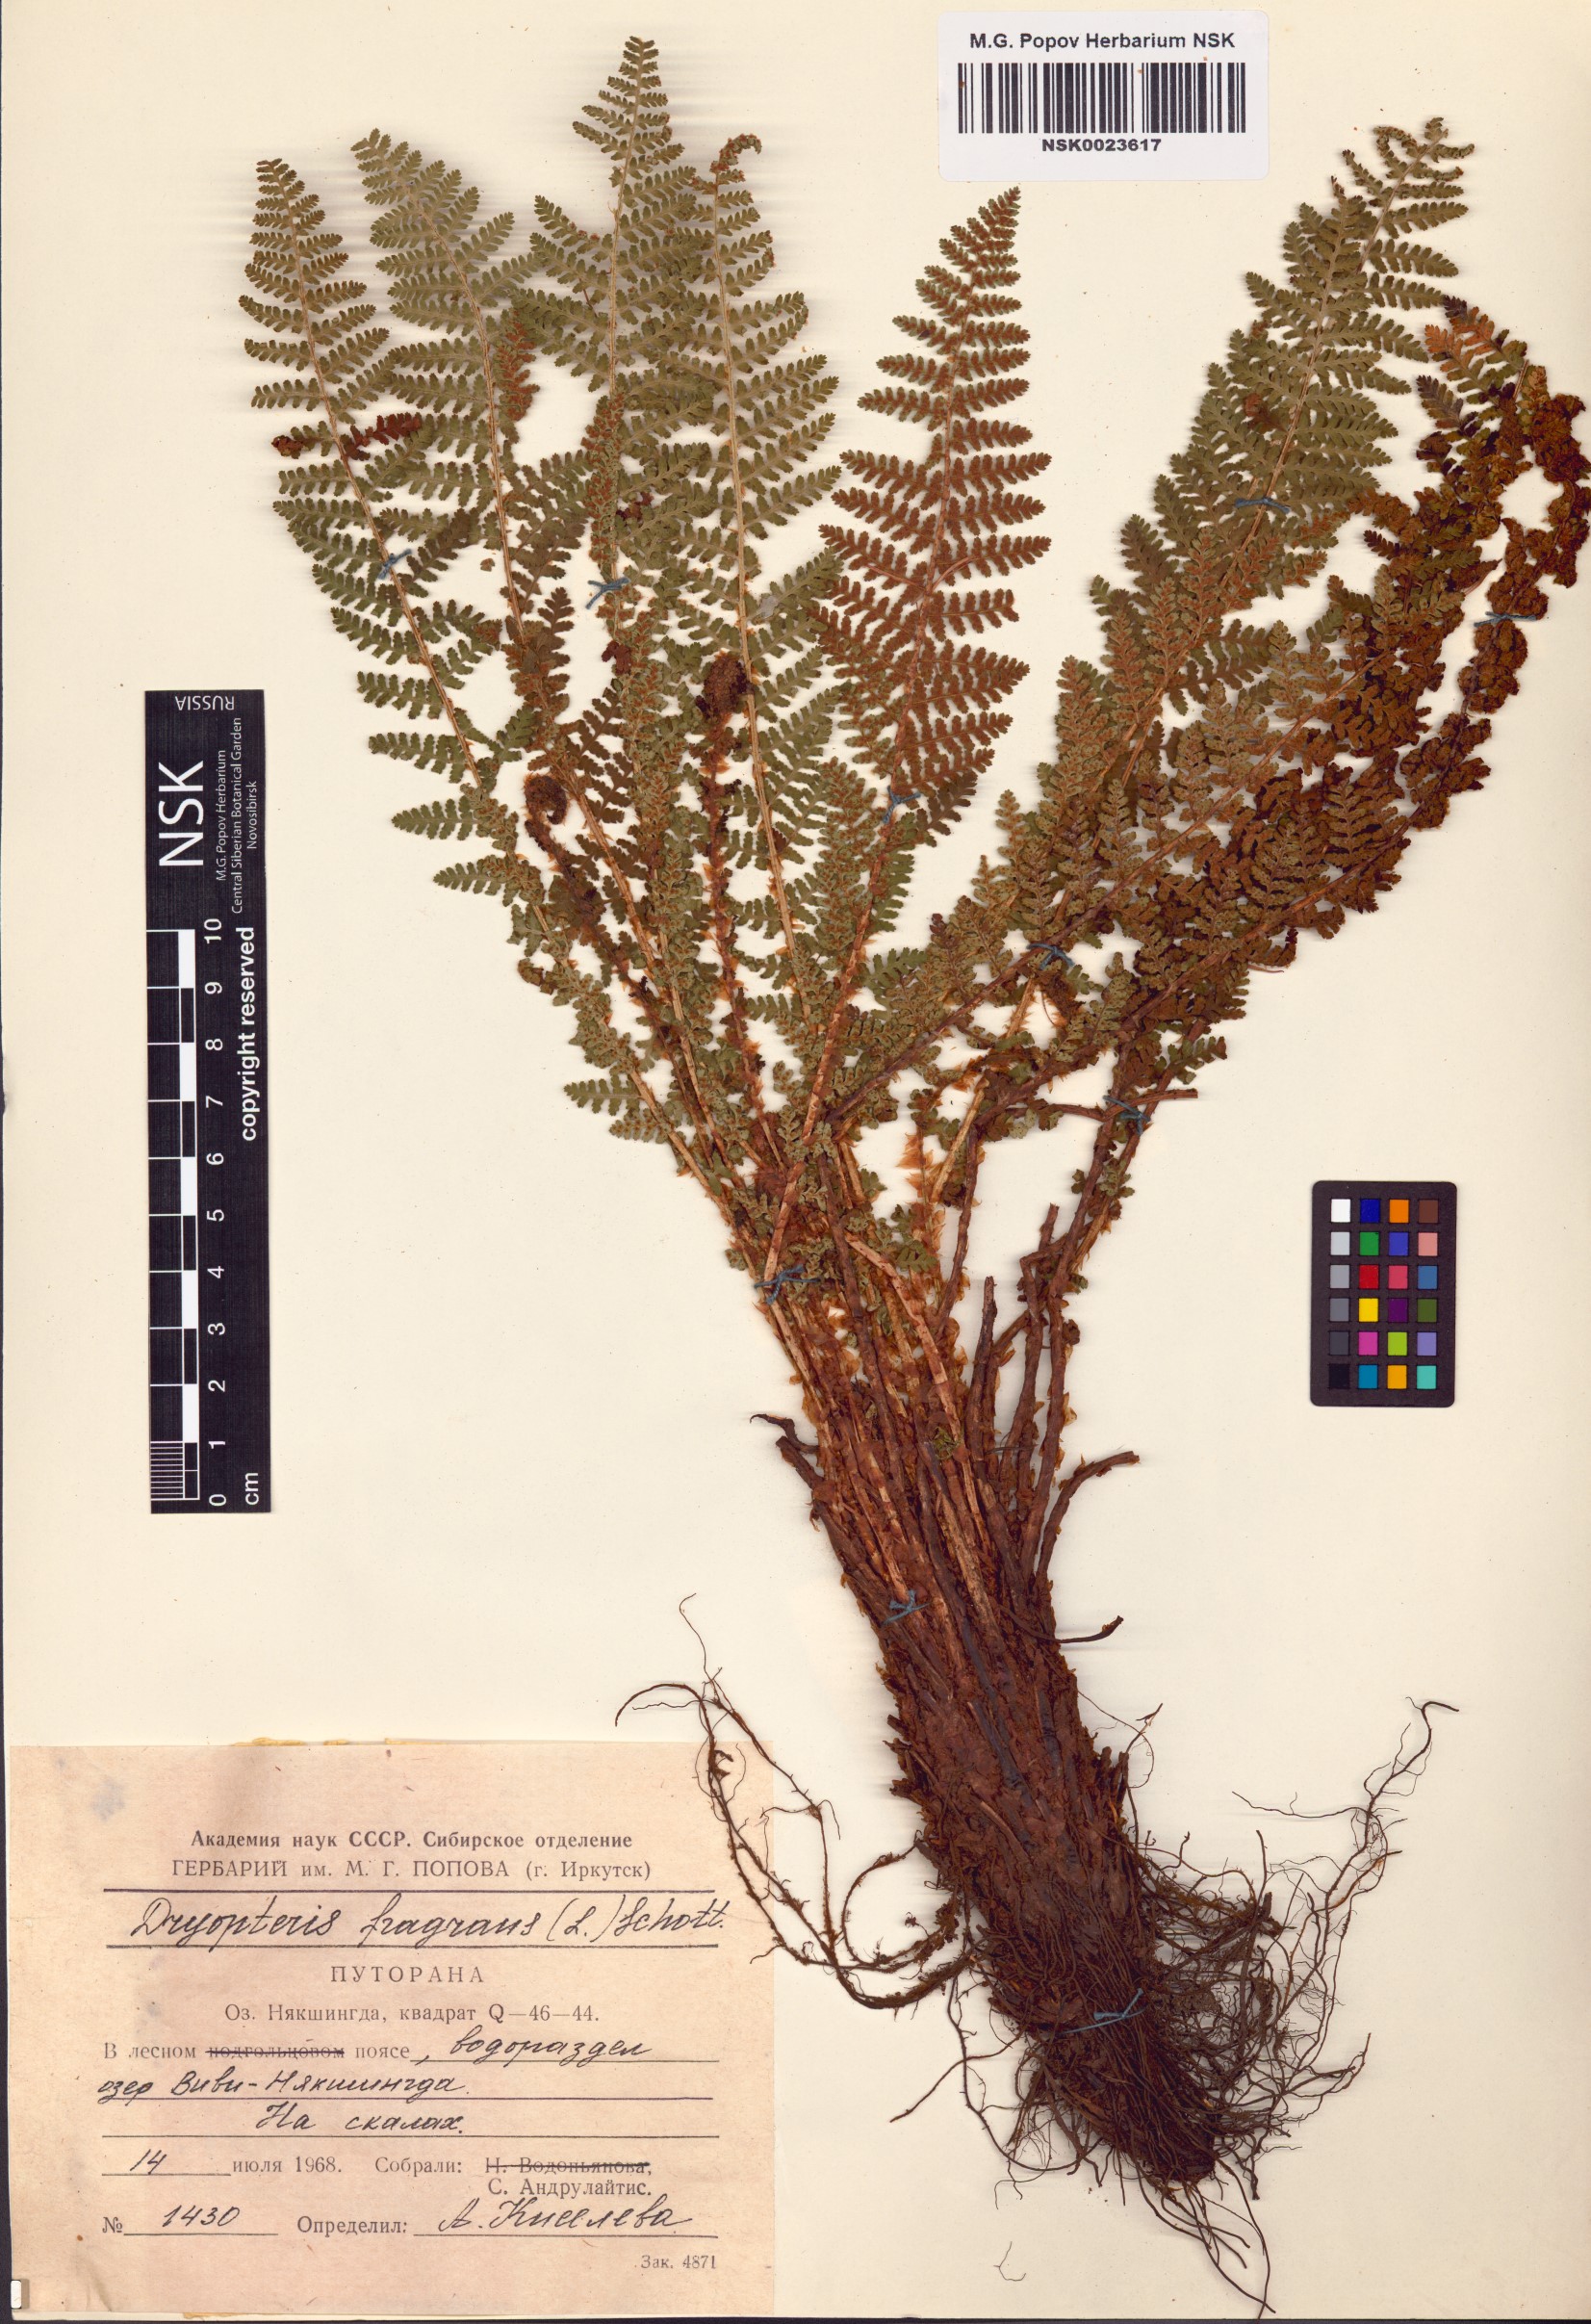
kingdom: Plantae
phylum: Tracheophyta
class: Polypodiopsida
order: Polypodiales
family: Dryopteridaceae
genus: Dryopteris
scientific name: Dryopteris fragrans
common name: Fragrant wood fern
